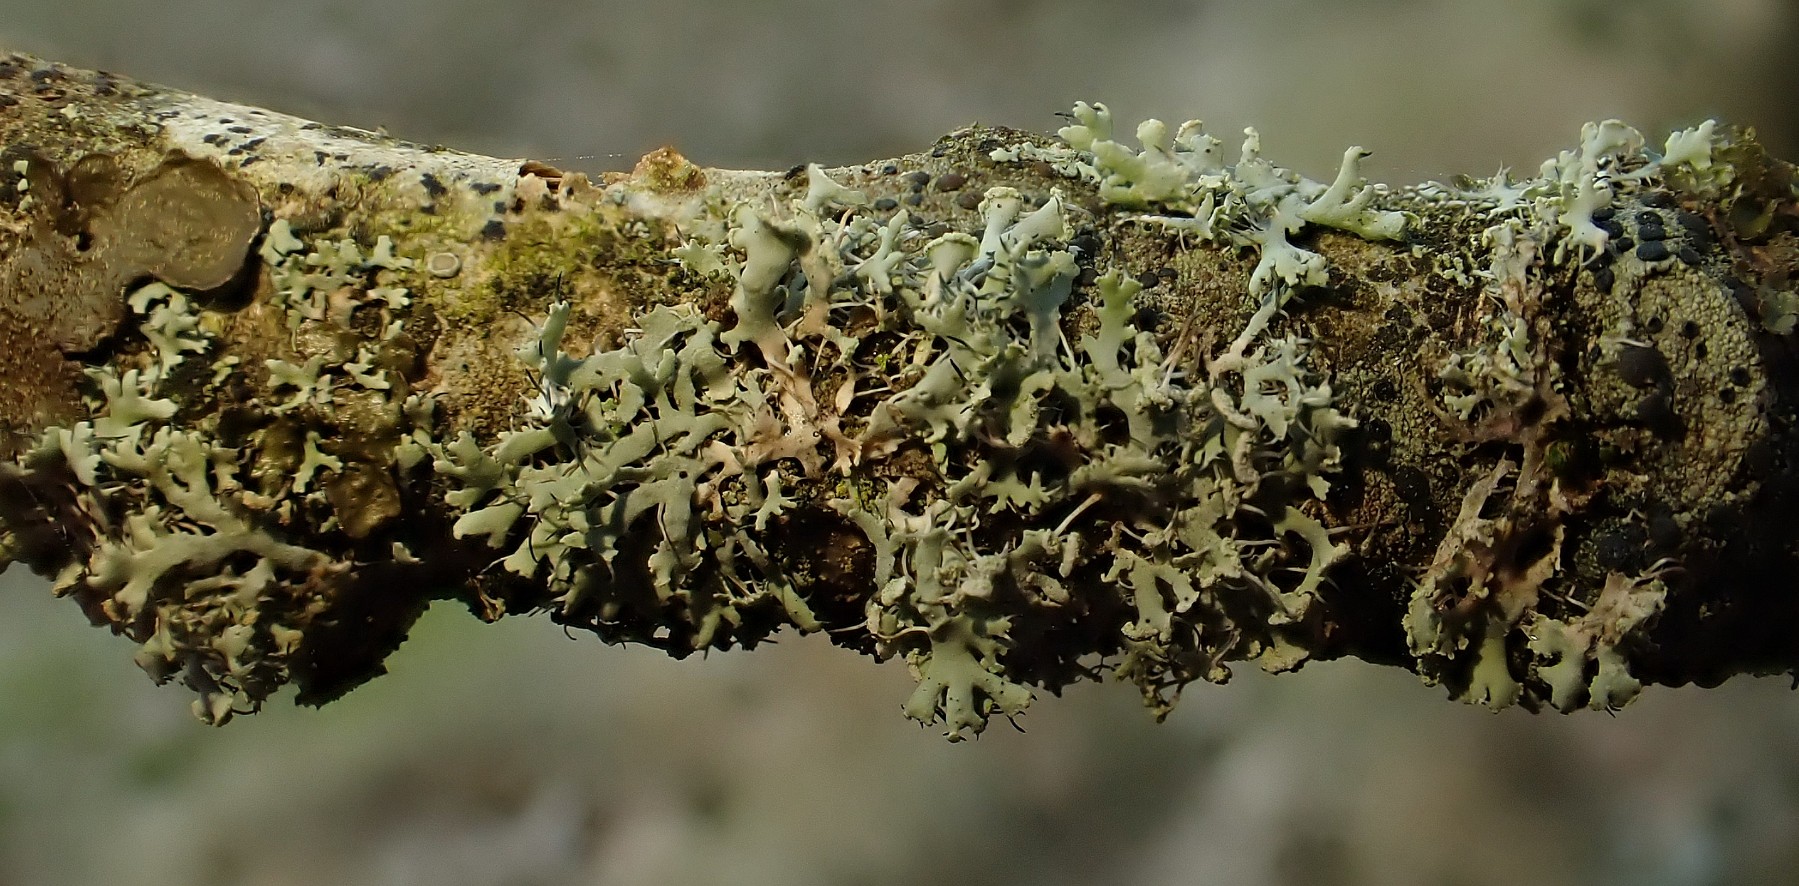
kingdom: Fungi
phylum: Ascomycota
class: Lecanoromycetes
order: Caliciales
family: Physciaceae
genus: Physcia
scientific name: Physcia tenella
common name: spæd rosetlav
